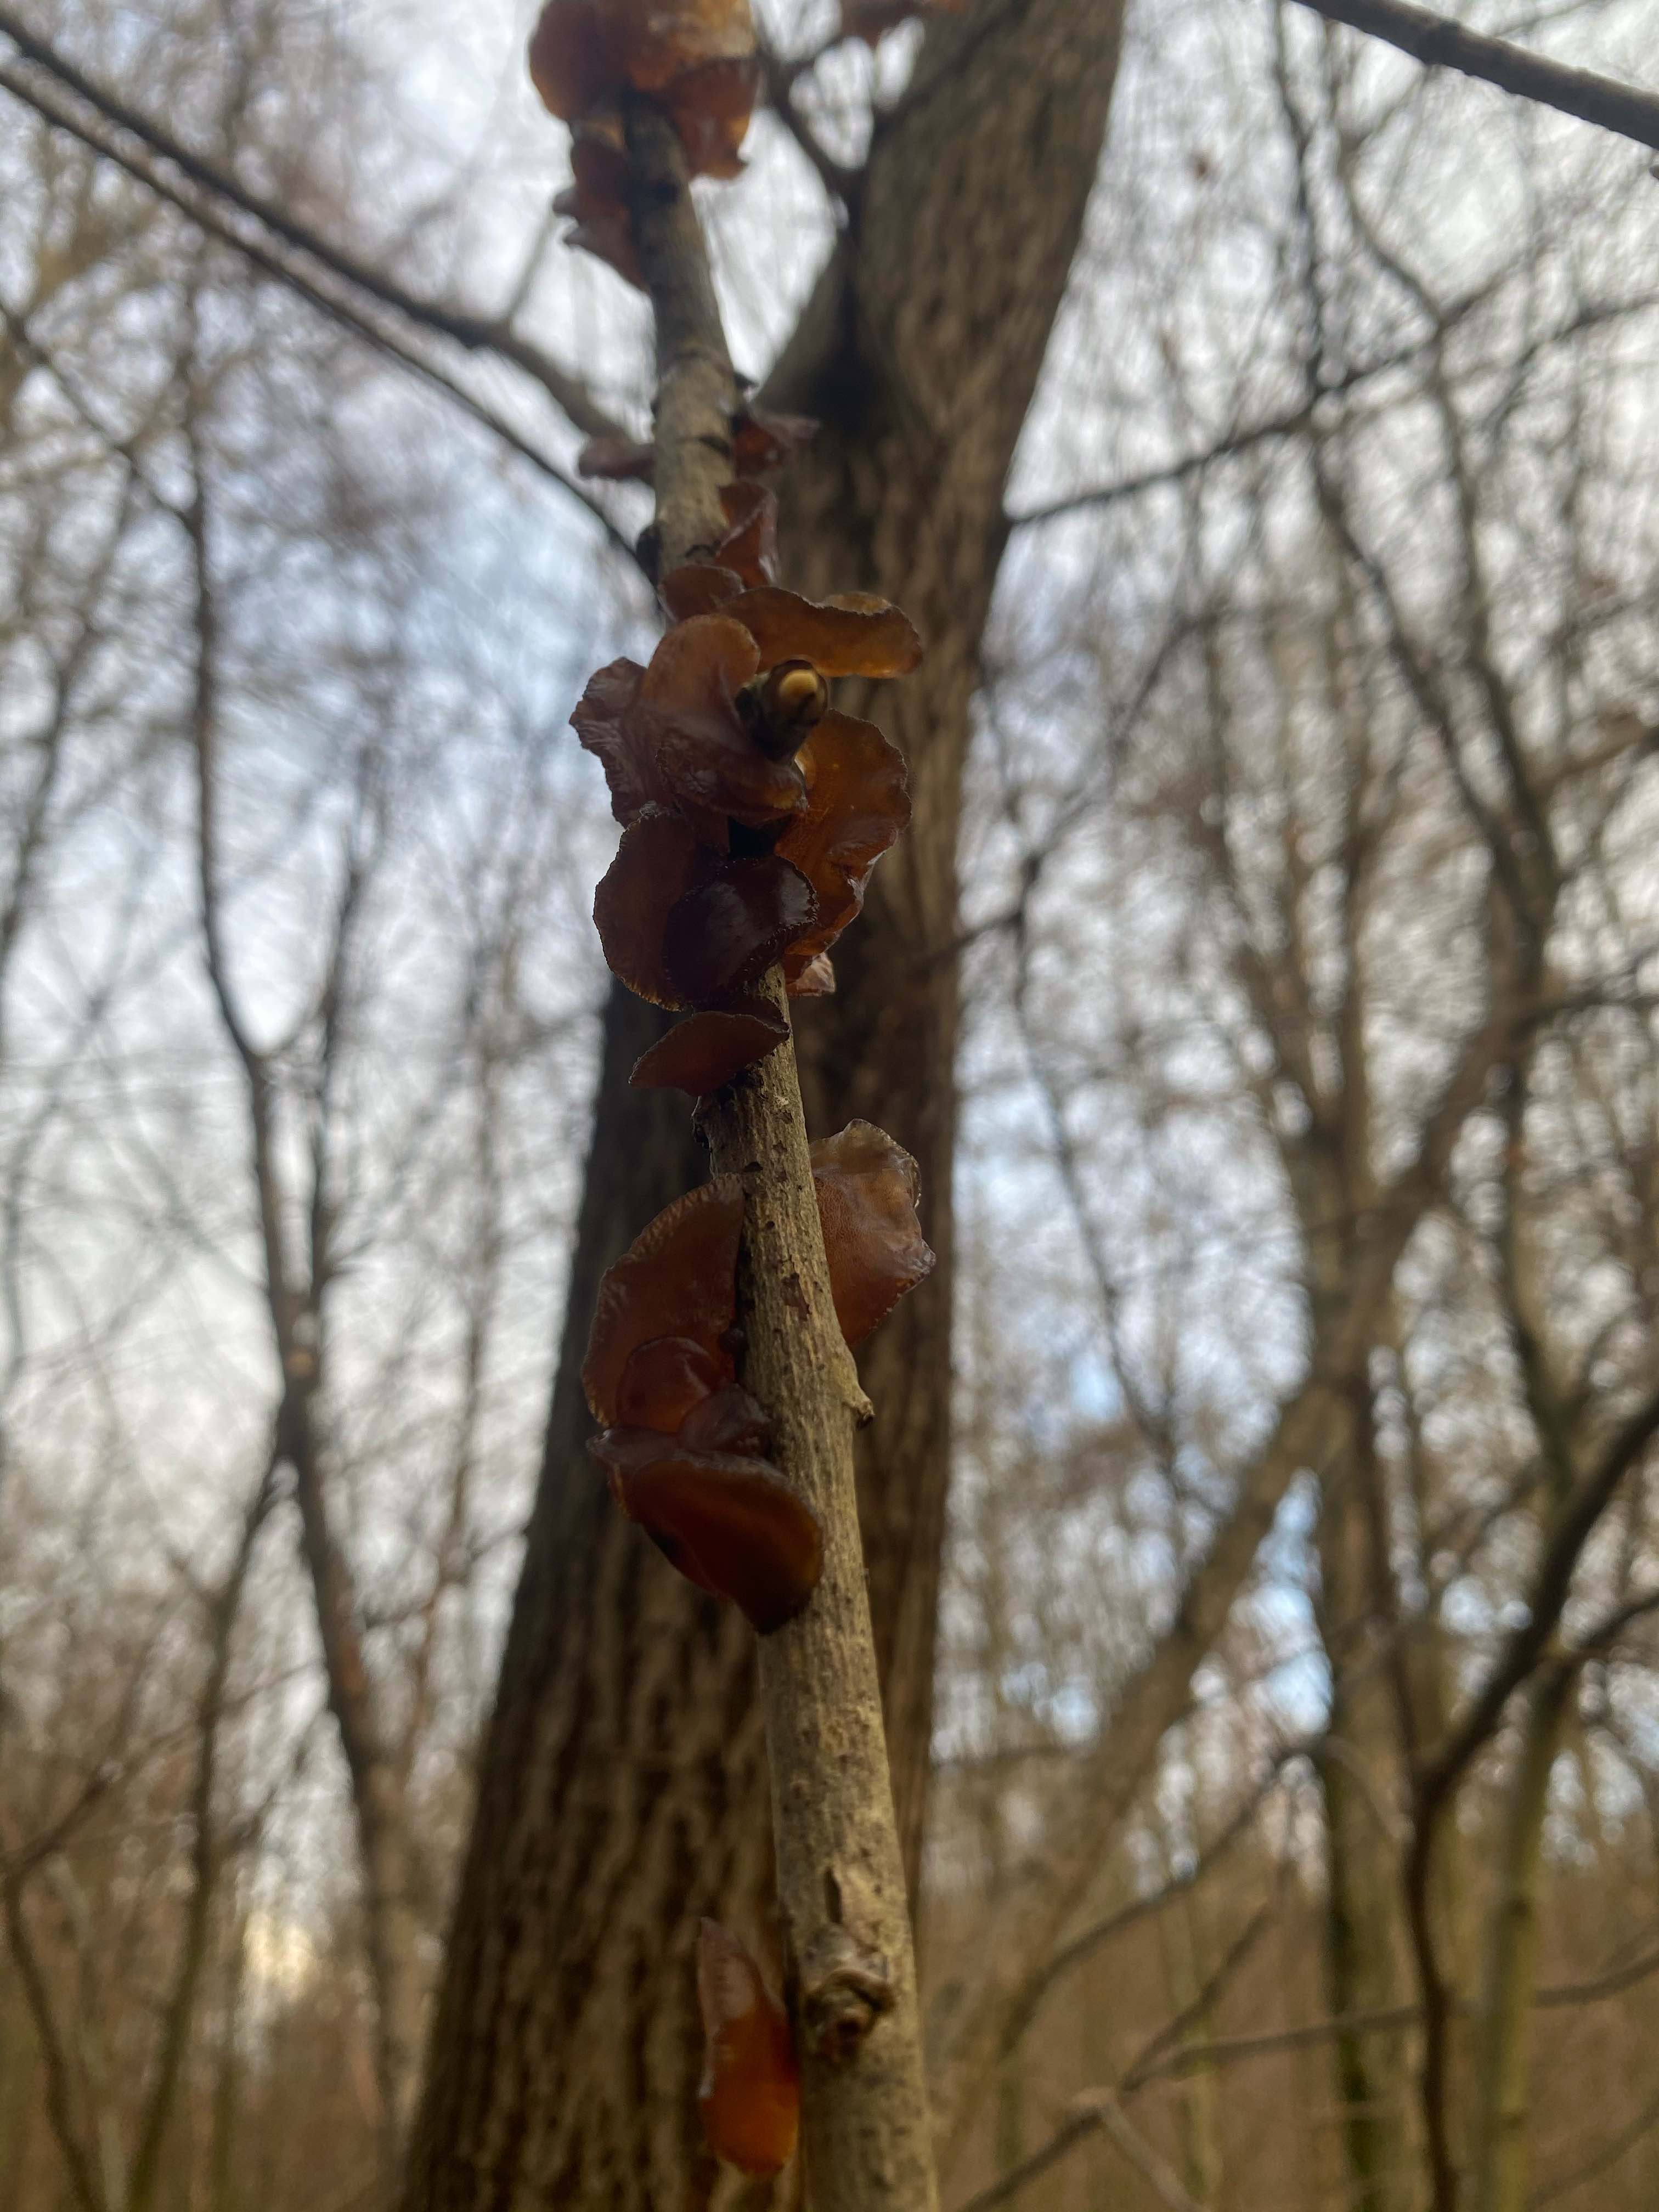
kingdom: Fungi
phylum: Basidiomycota
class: Agaricomycetes
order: Auriculariales
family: Auriculariaceae
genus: Exidia
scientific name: Exidia recisa
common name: pile-bævretop
